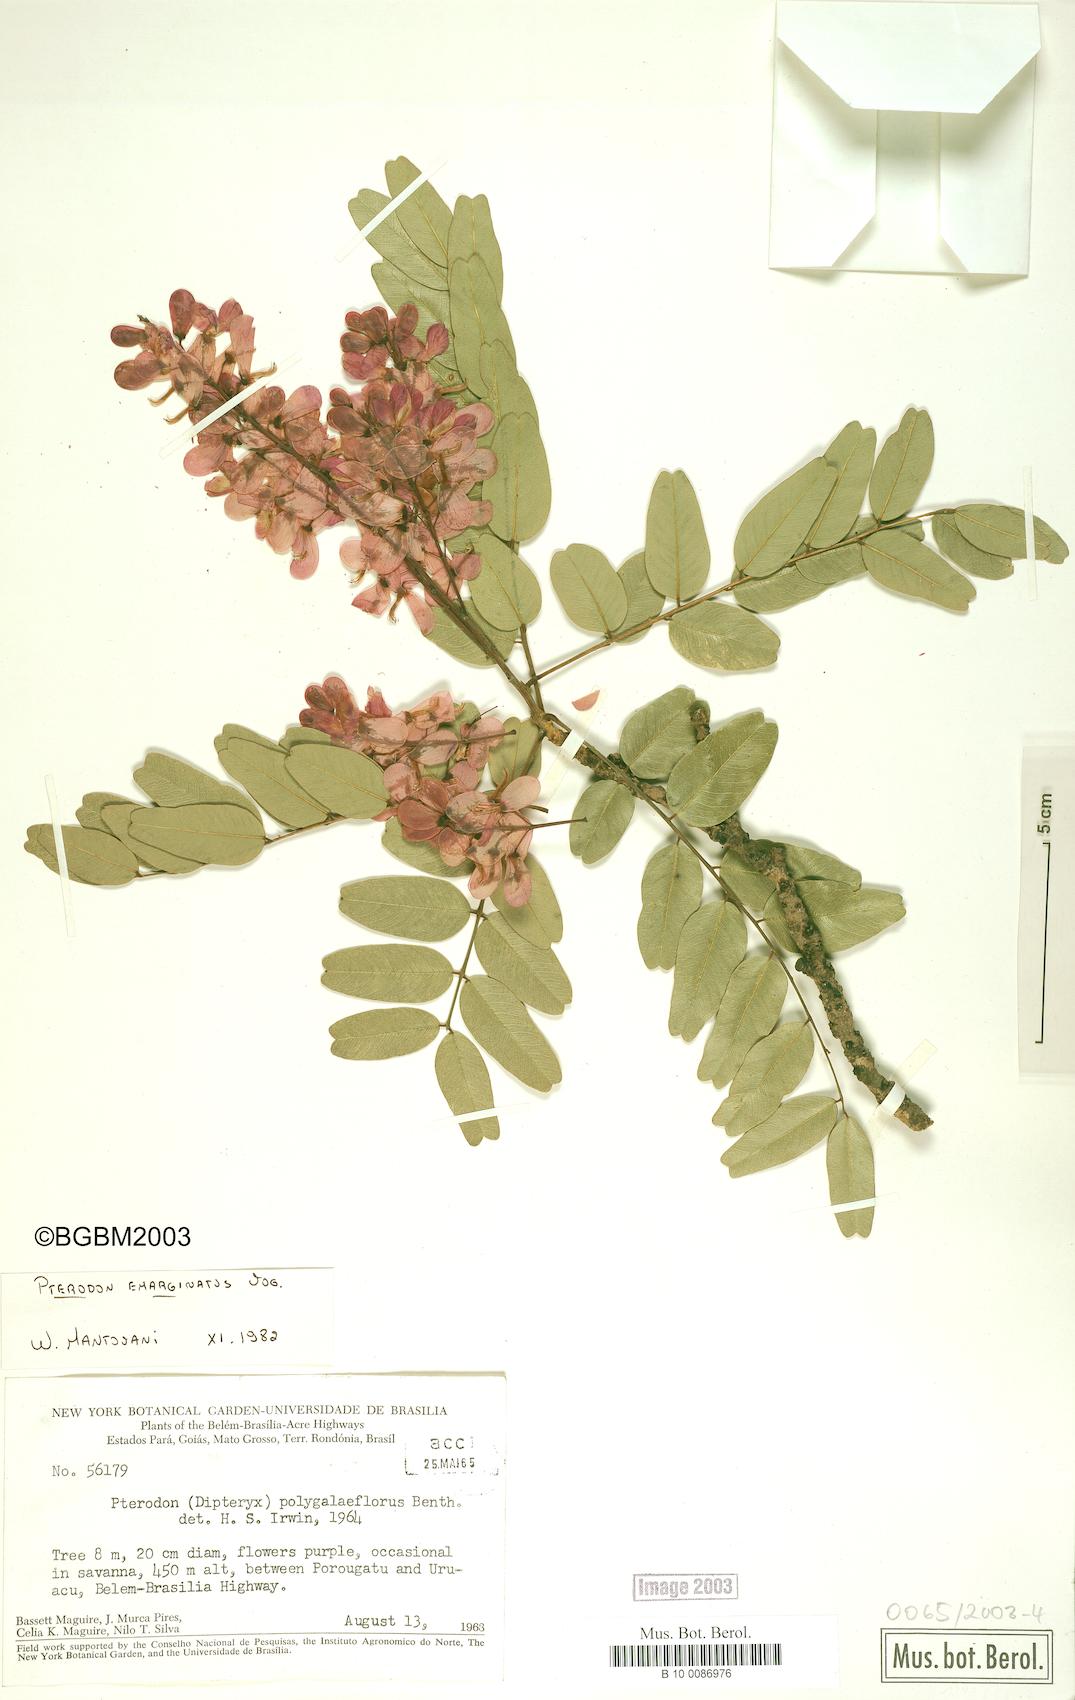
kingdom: Plantae
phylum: Tracheophyta
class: Magnoliopsida
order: Fabales
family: Fabaceae
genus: Pterodon
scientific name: Pterodon emarginatus
